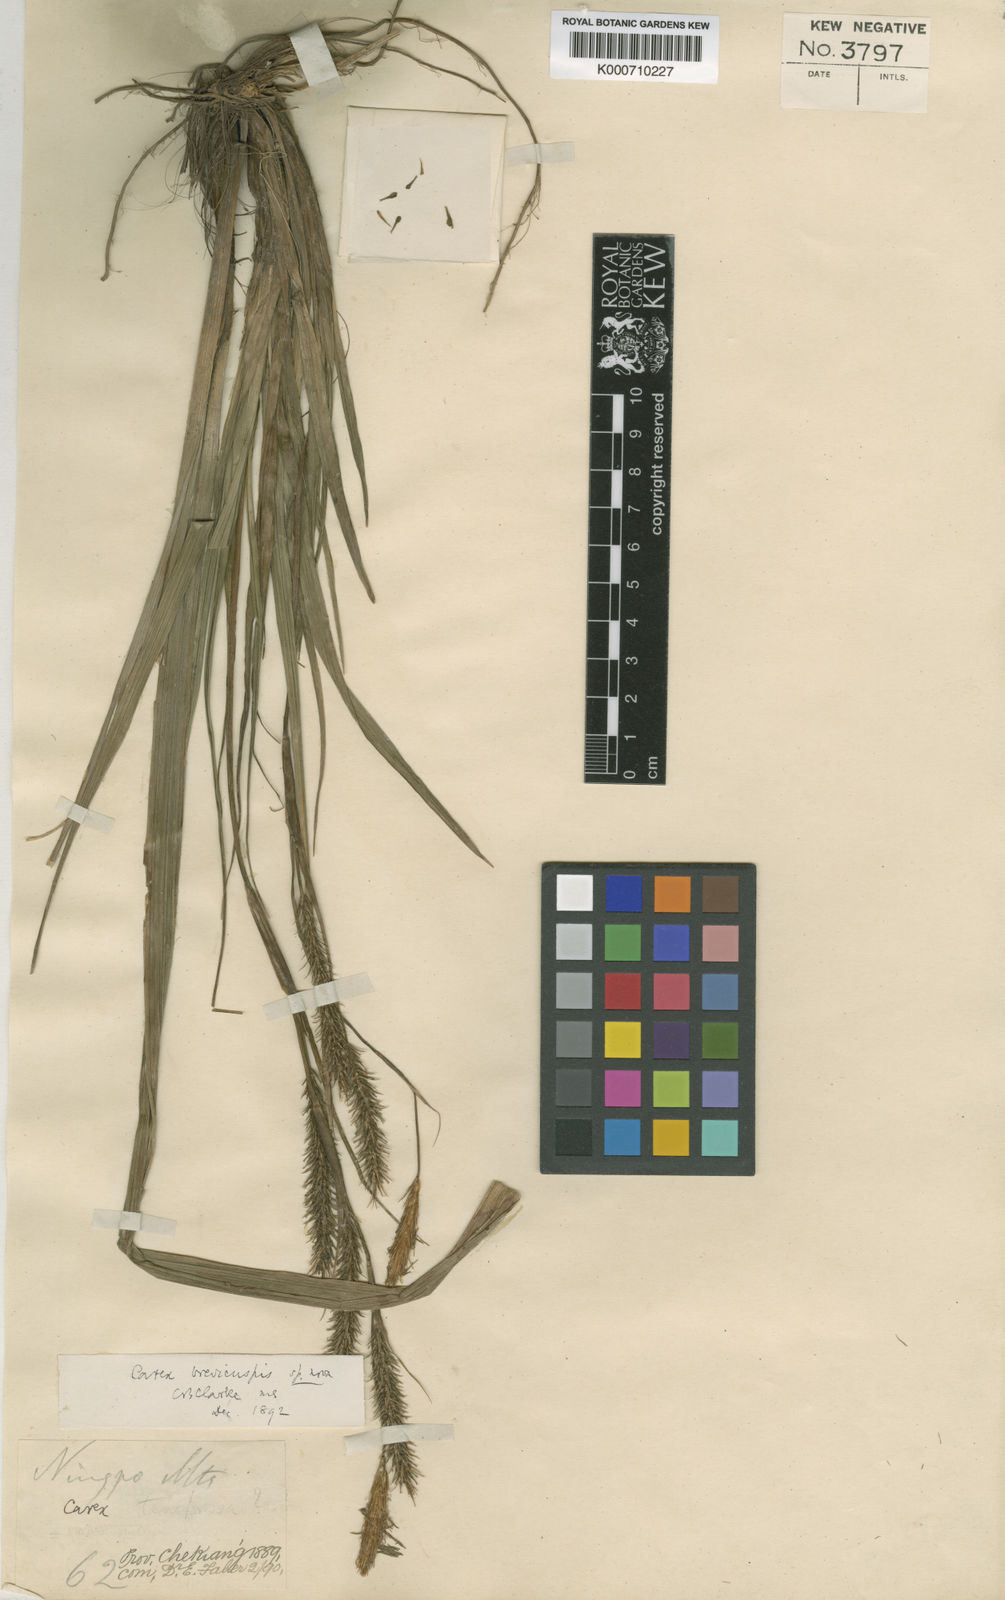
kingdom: Plantae
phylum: Tracheophyta
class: Liliopsida
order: Poales
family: Cyperaceae
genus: Carex
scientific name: Carex brevicuspis
